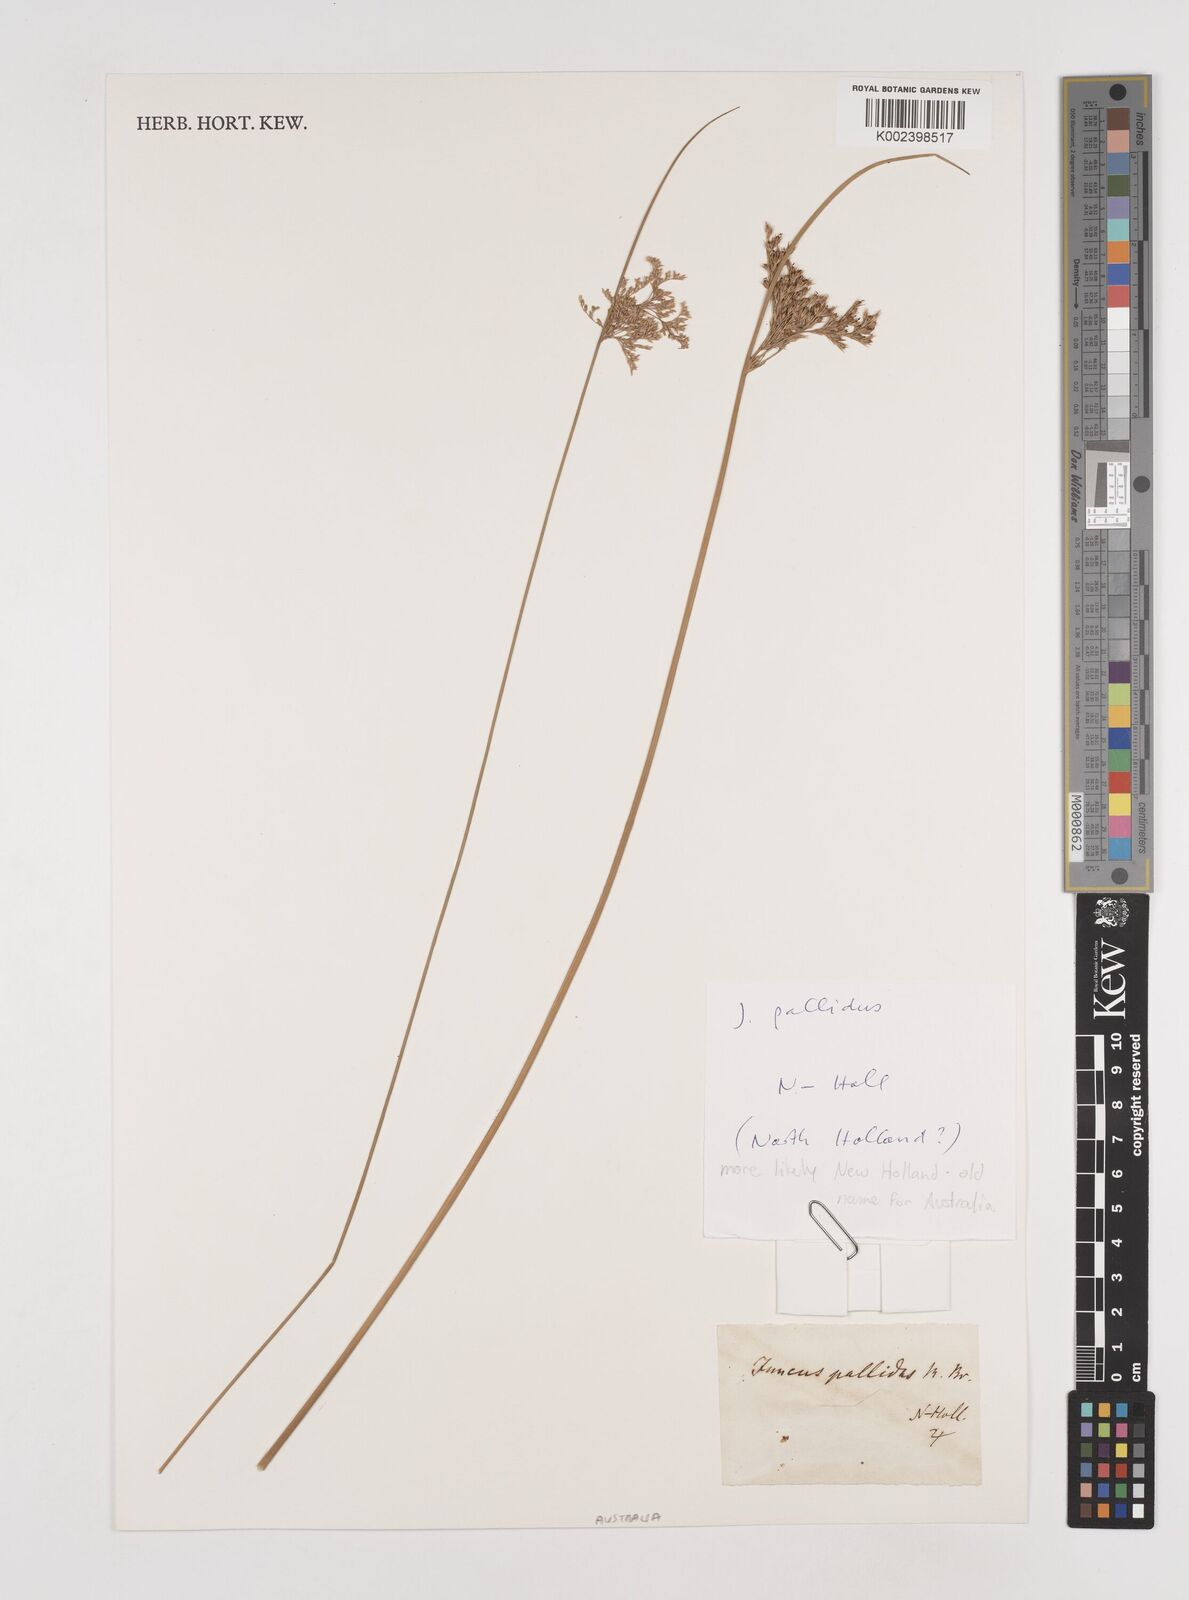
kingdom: Plantae
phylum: Tracheophyta
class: Liliopsida
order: Poales
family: Juncaceae
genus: Juncus
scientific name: Juncus pallidus
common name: Great soft-rush
